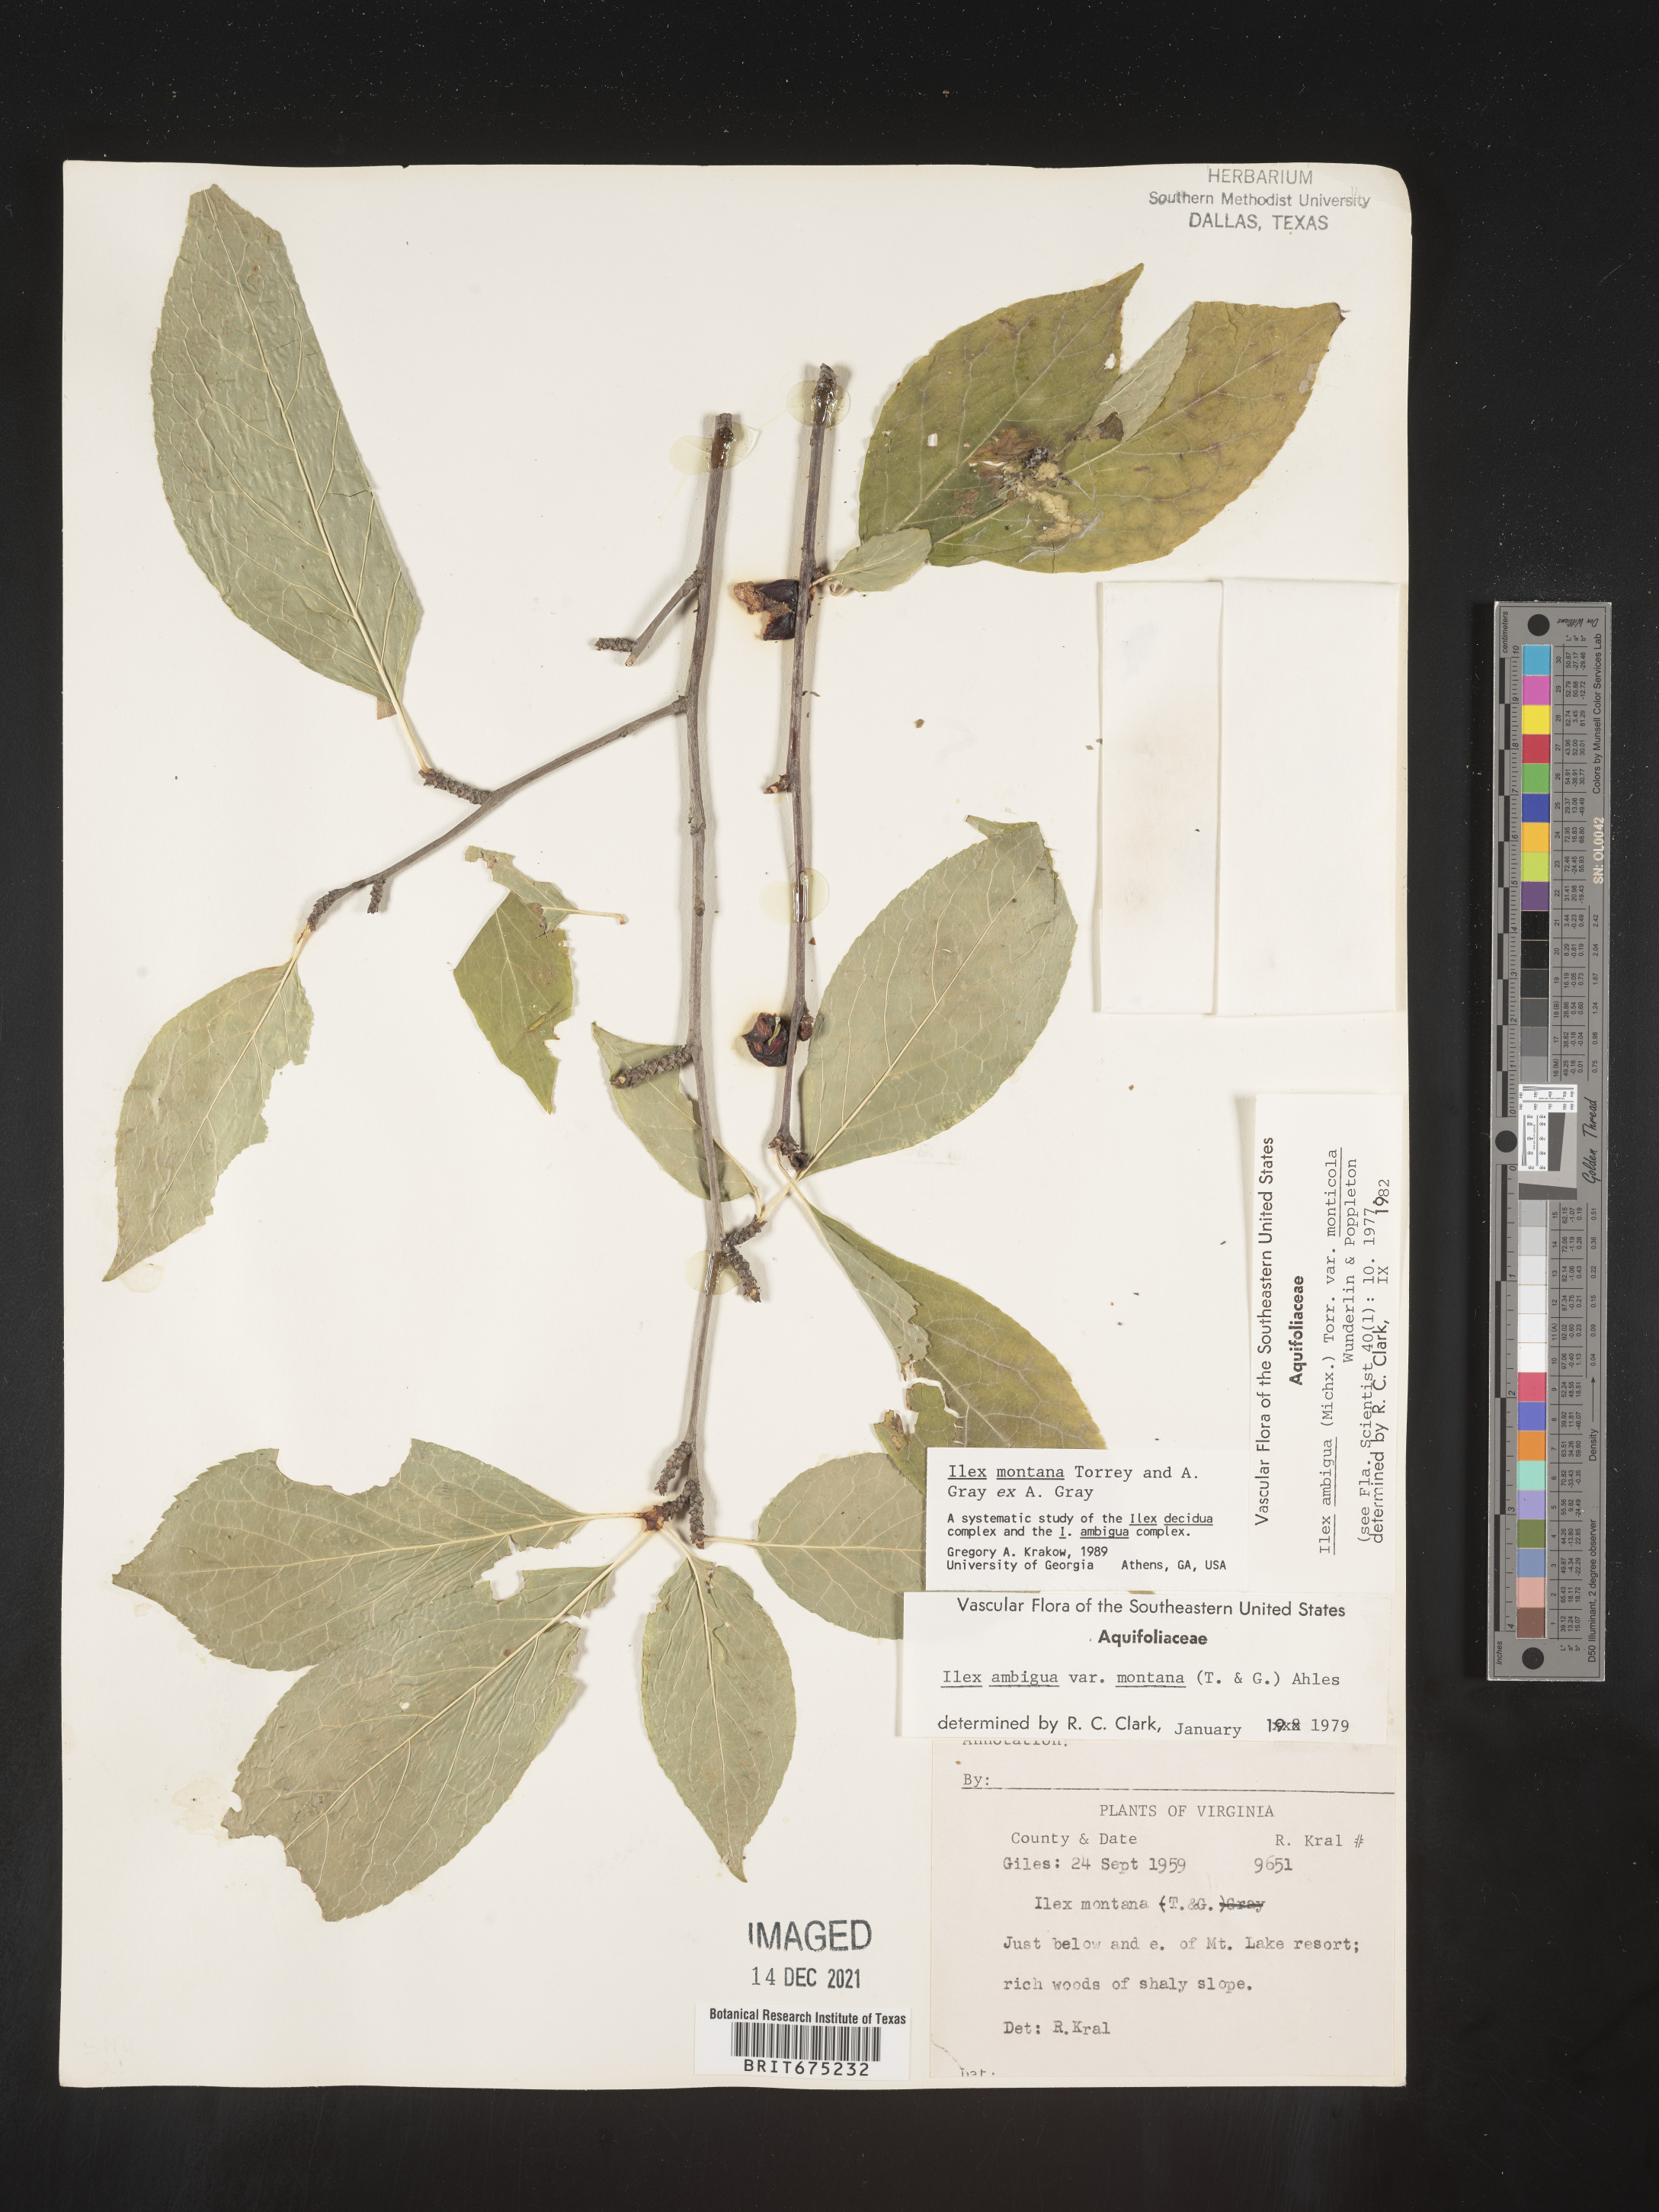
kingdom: Plantae
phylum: Tracheophyta
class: Magnoliopsida
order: Aquifoliales
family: Aquifoliaceae
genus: Ilex
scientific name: Ilex montana
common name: Mountain winterberry
